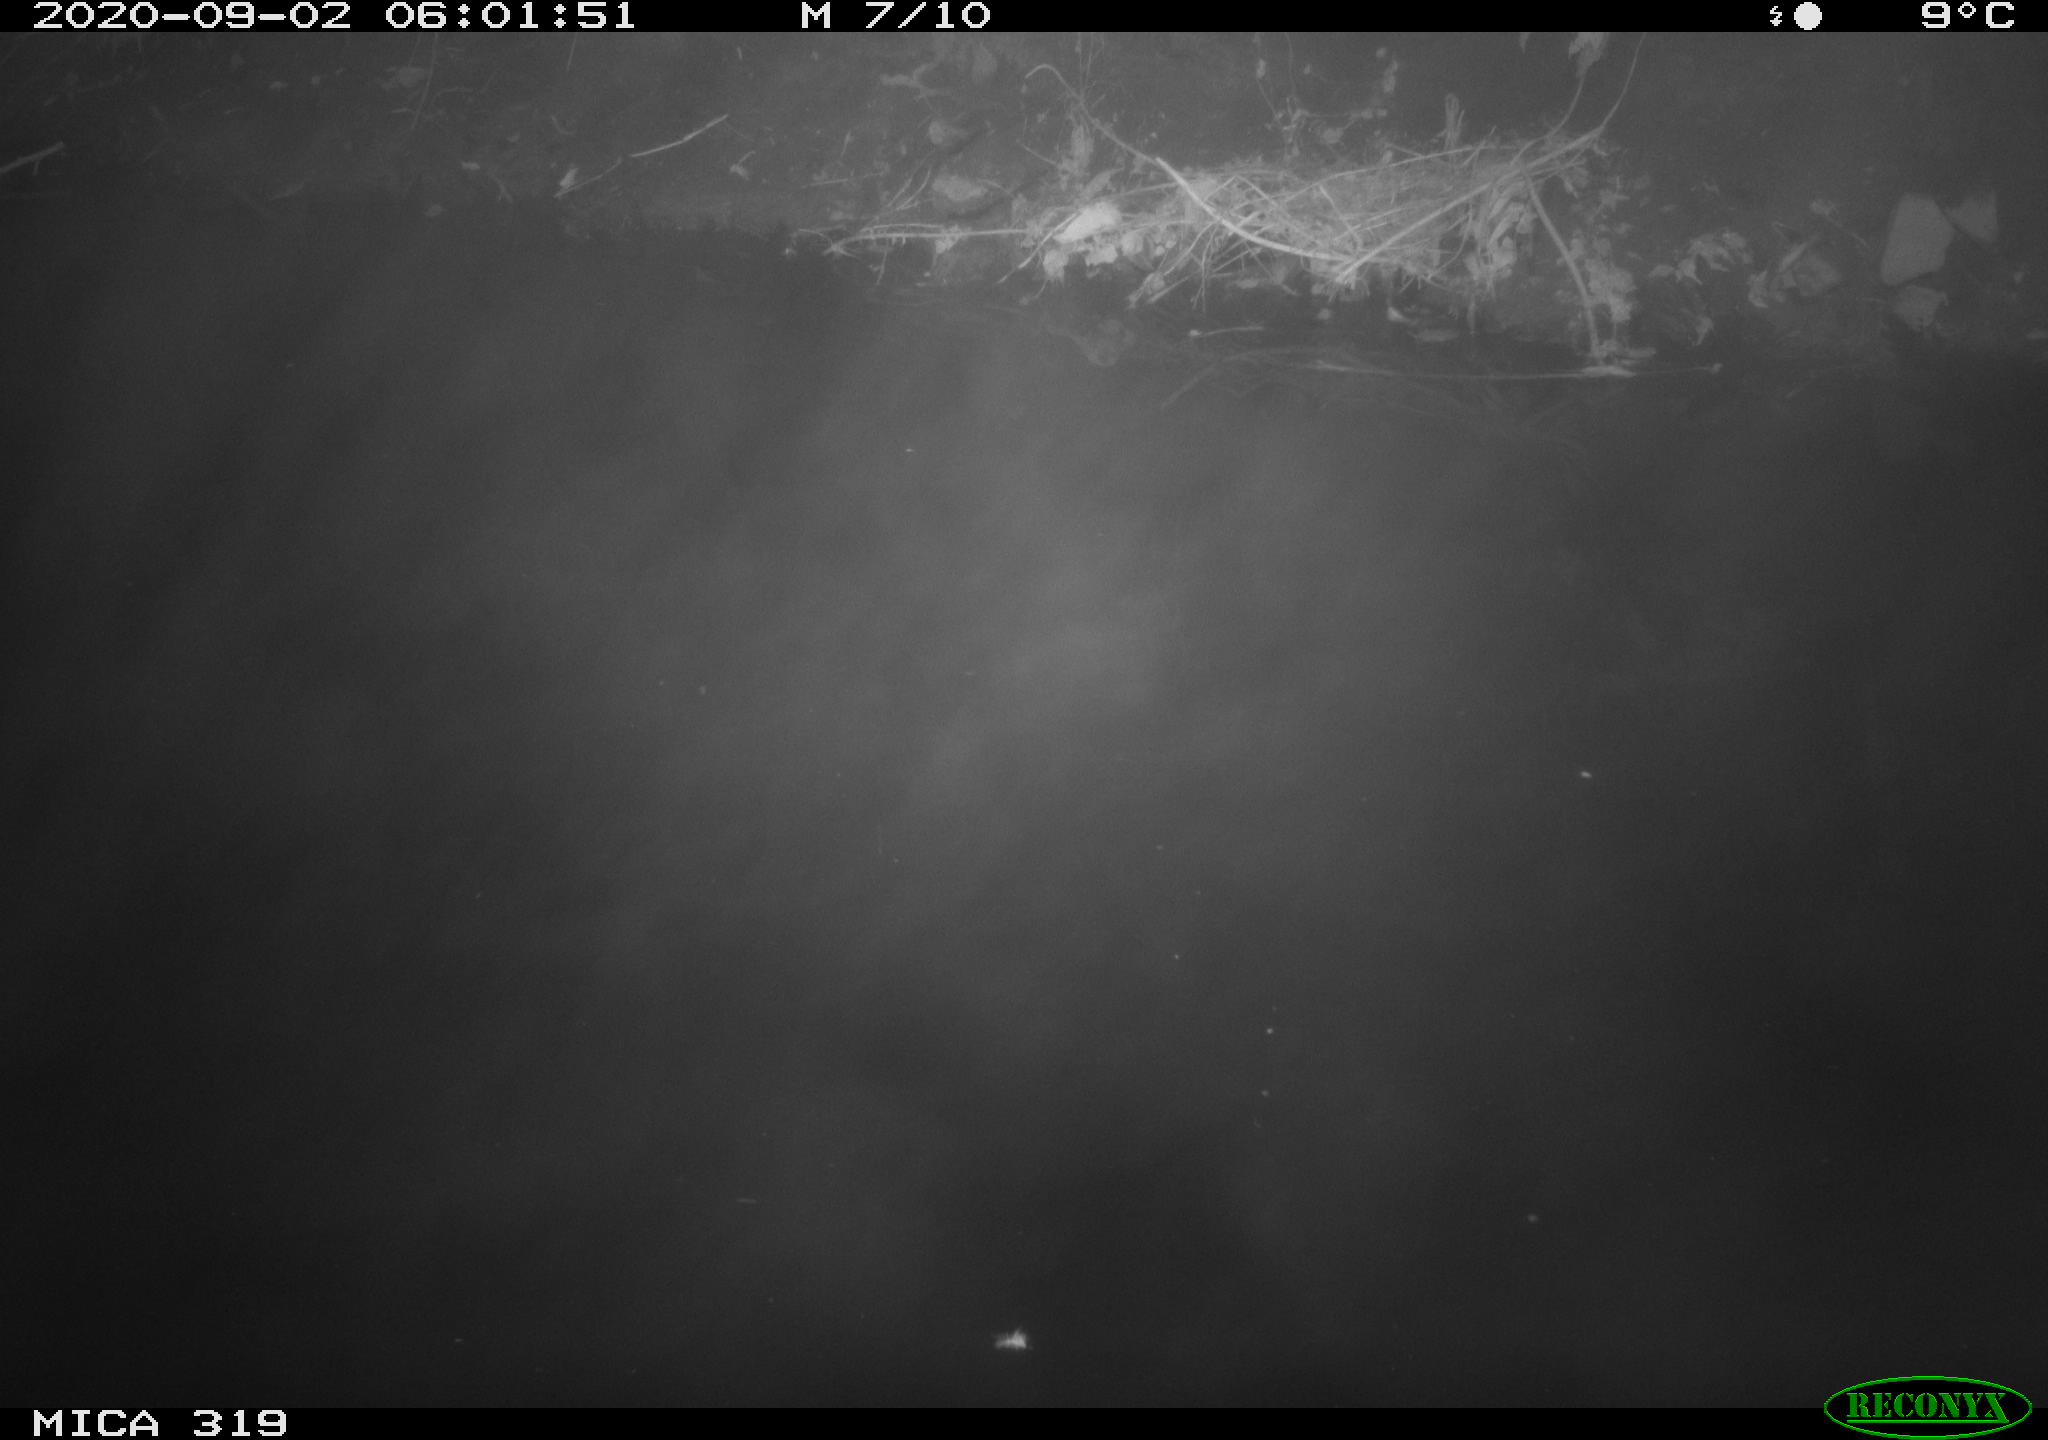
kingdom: Animalia
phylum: Chordata
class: Aves
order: Anseriformes
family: Anatidae
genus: Anas
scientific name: Anas platyrhynchos
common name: Mallard
